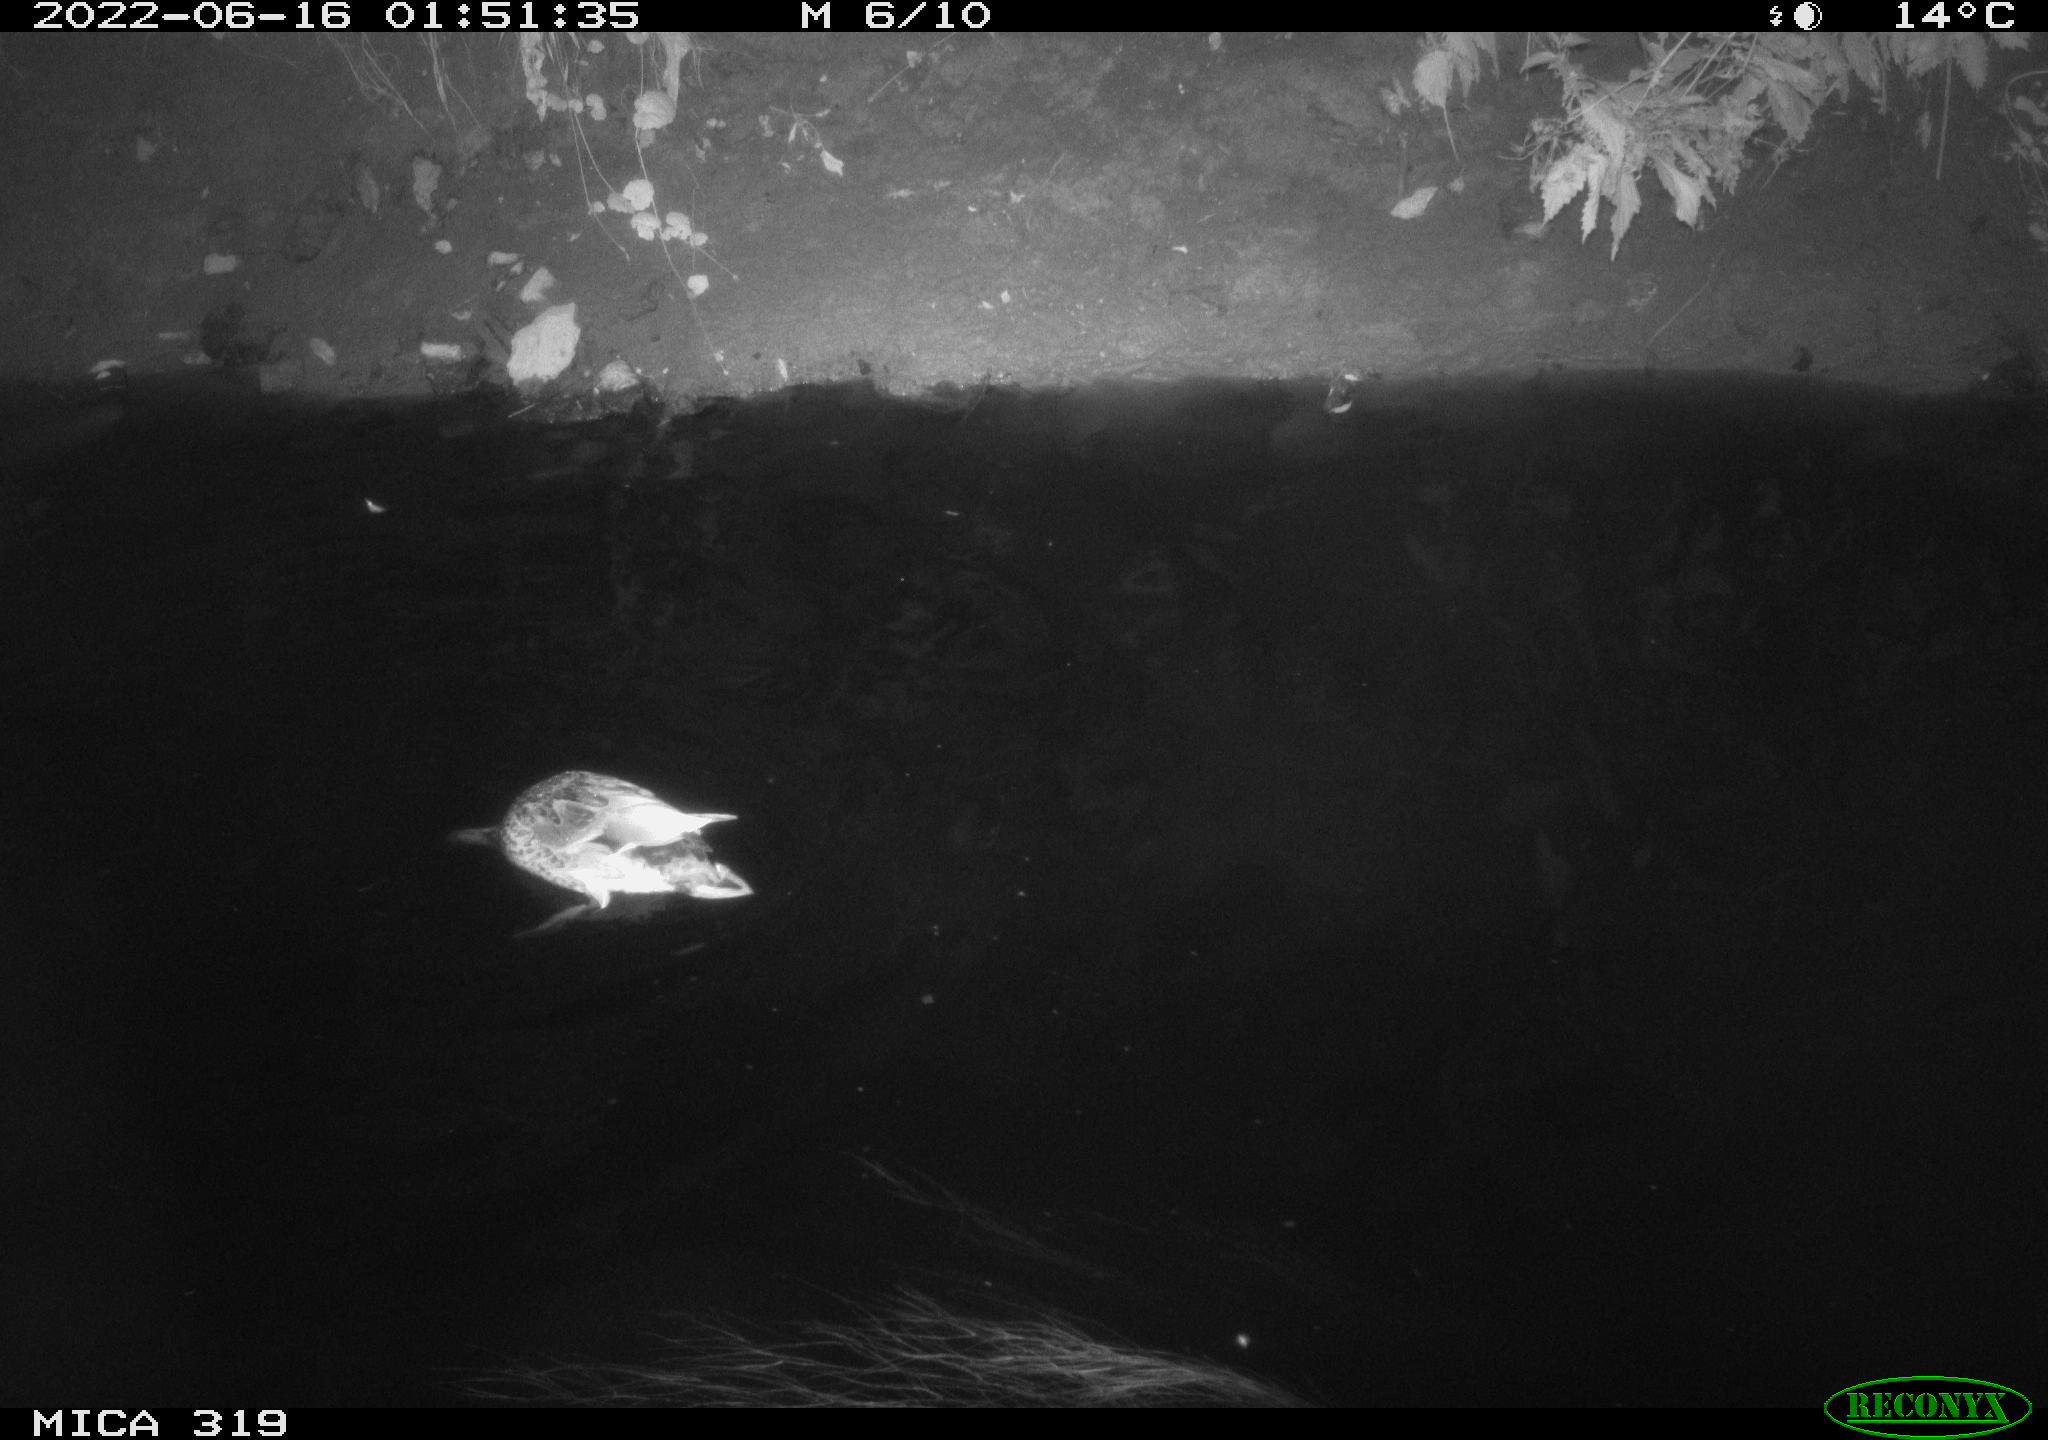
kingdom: Animalia
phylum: Chordata
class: Aves
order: Anseriformes
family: Anatidae
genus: Anas
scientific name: Anas
